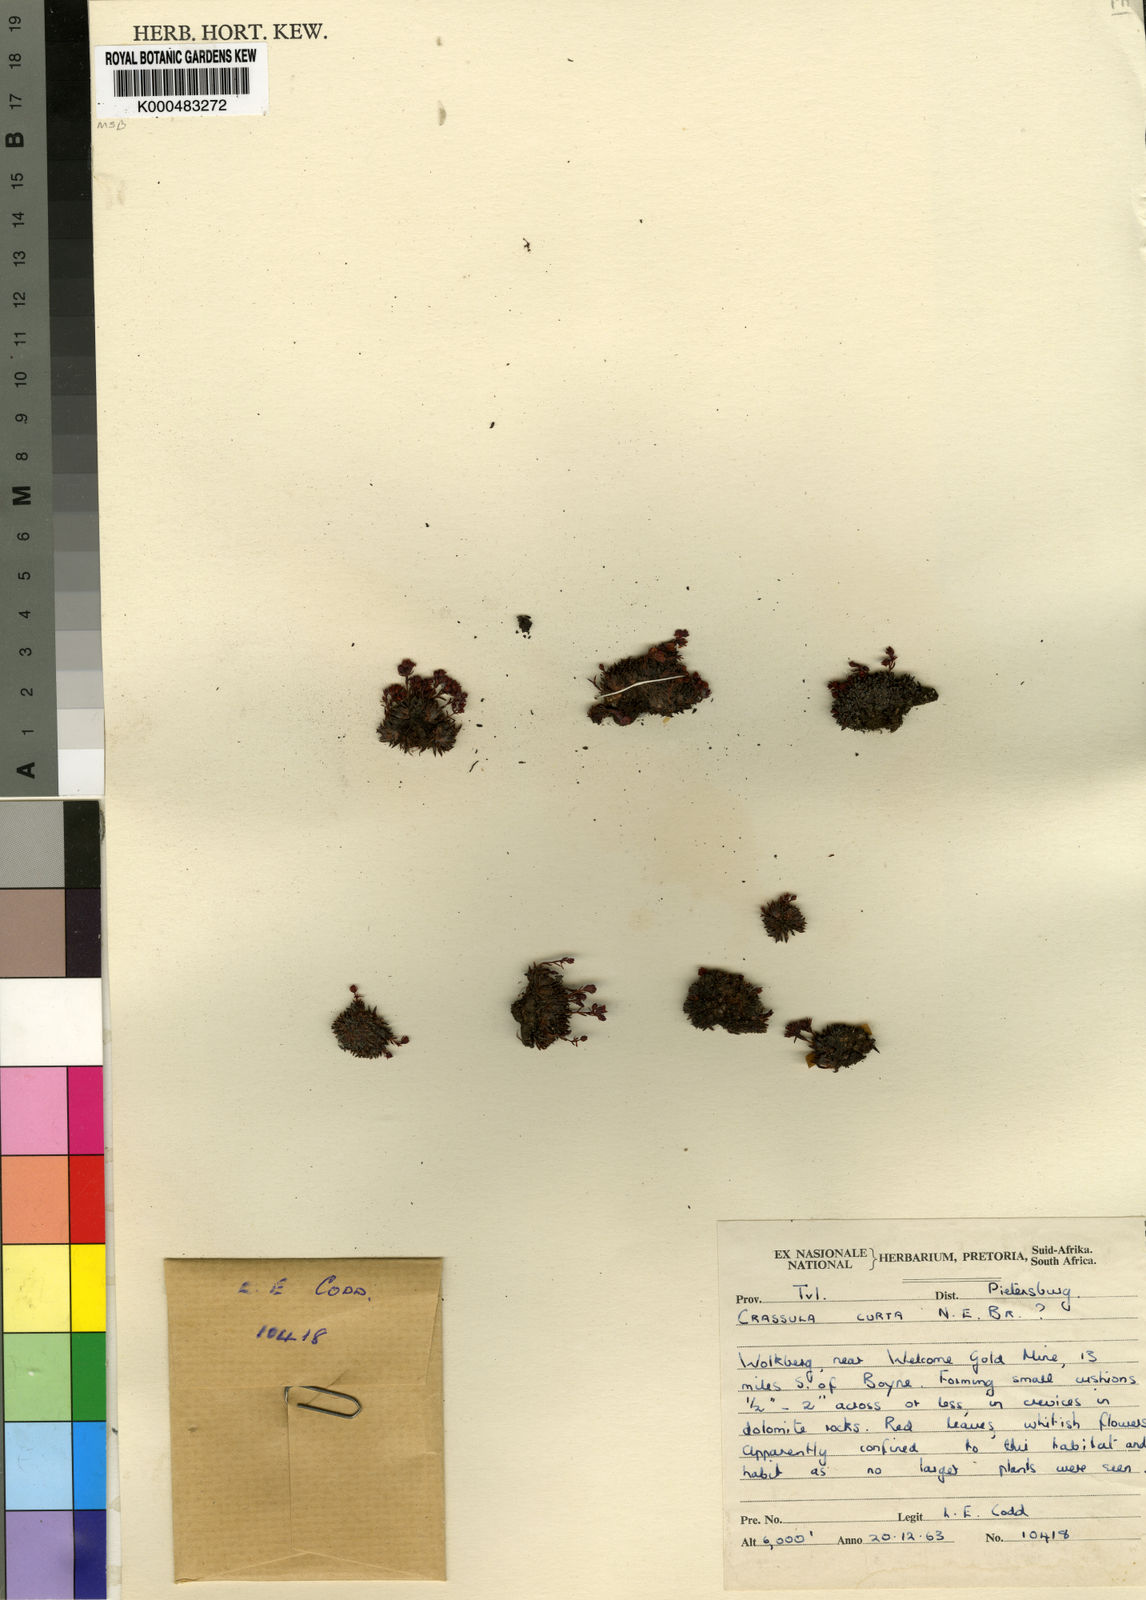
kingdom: Plantae
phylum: Tracheophyta
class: Magnoliopsida
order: Saxifragales
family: Crassulaceae
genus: Crassula
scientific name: Crassula setulosa
